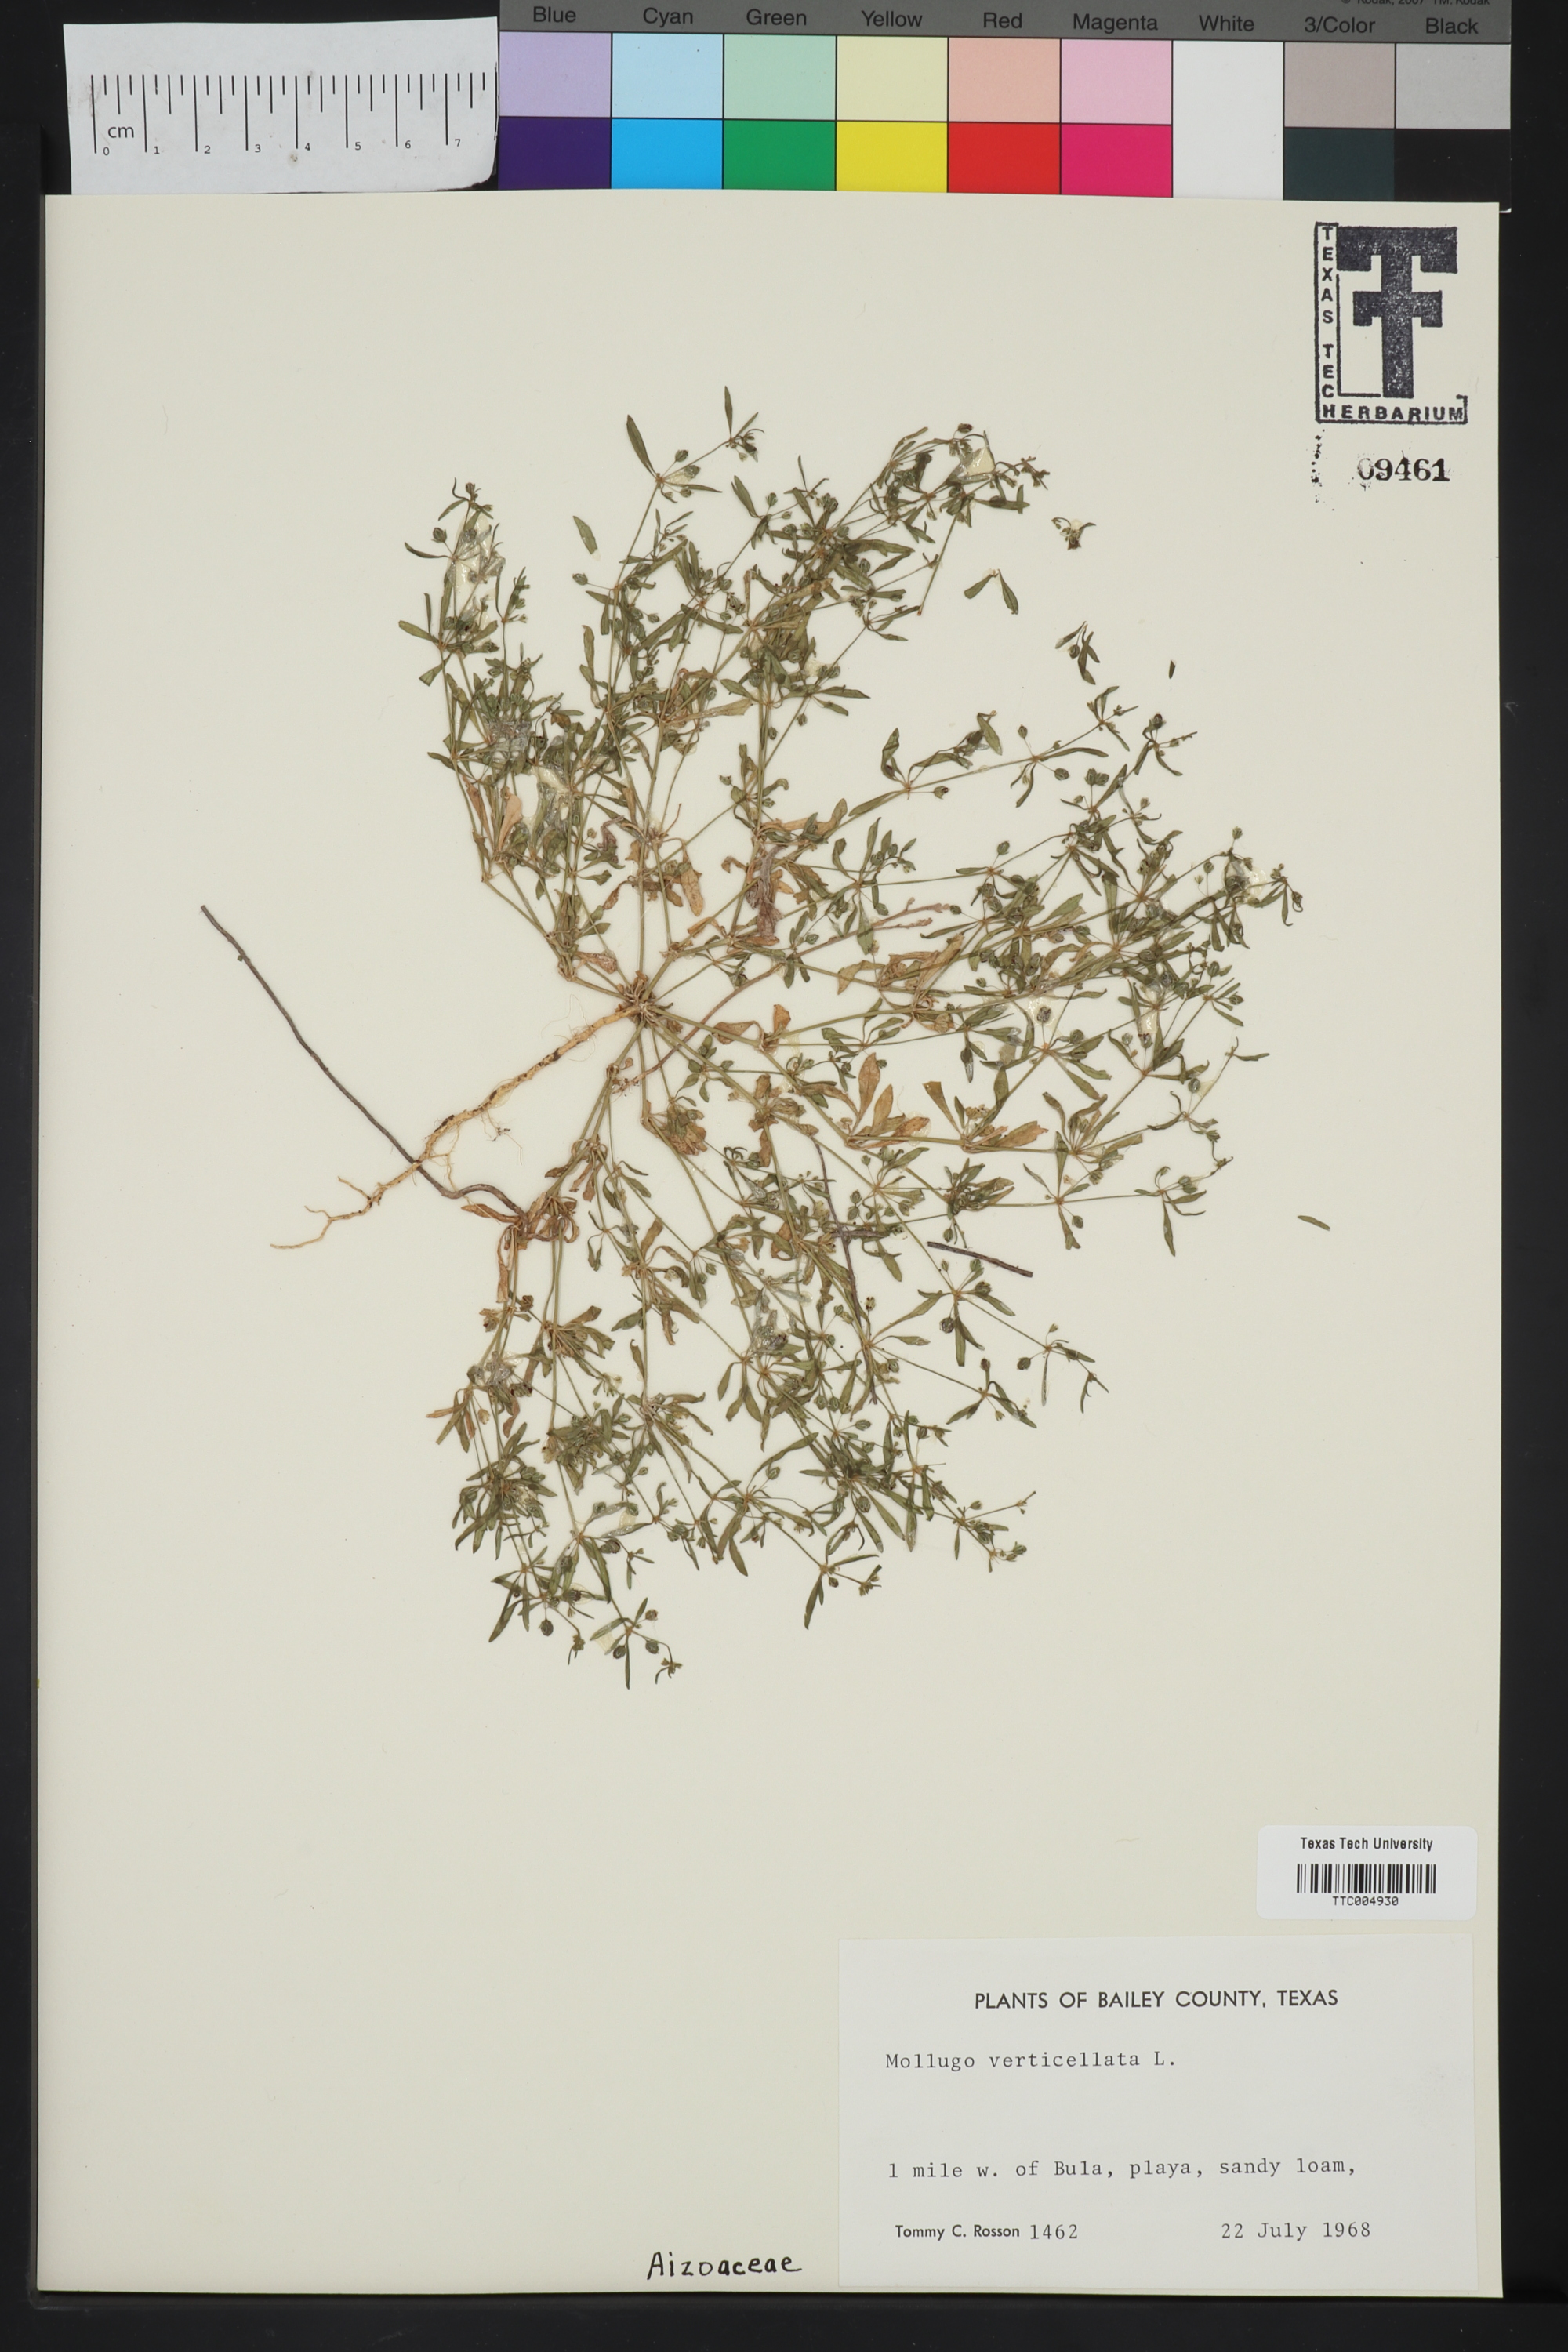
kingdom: Plantae
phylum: Tracheophyta
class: Magnoliopsida
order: Caryophyllales
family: Molluginaceae
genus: Mollugo
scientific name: Mollugo verticillata
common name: Green carpetweed
